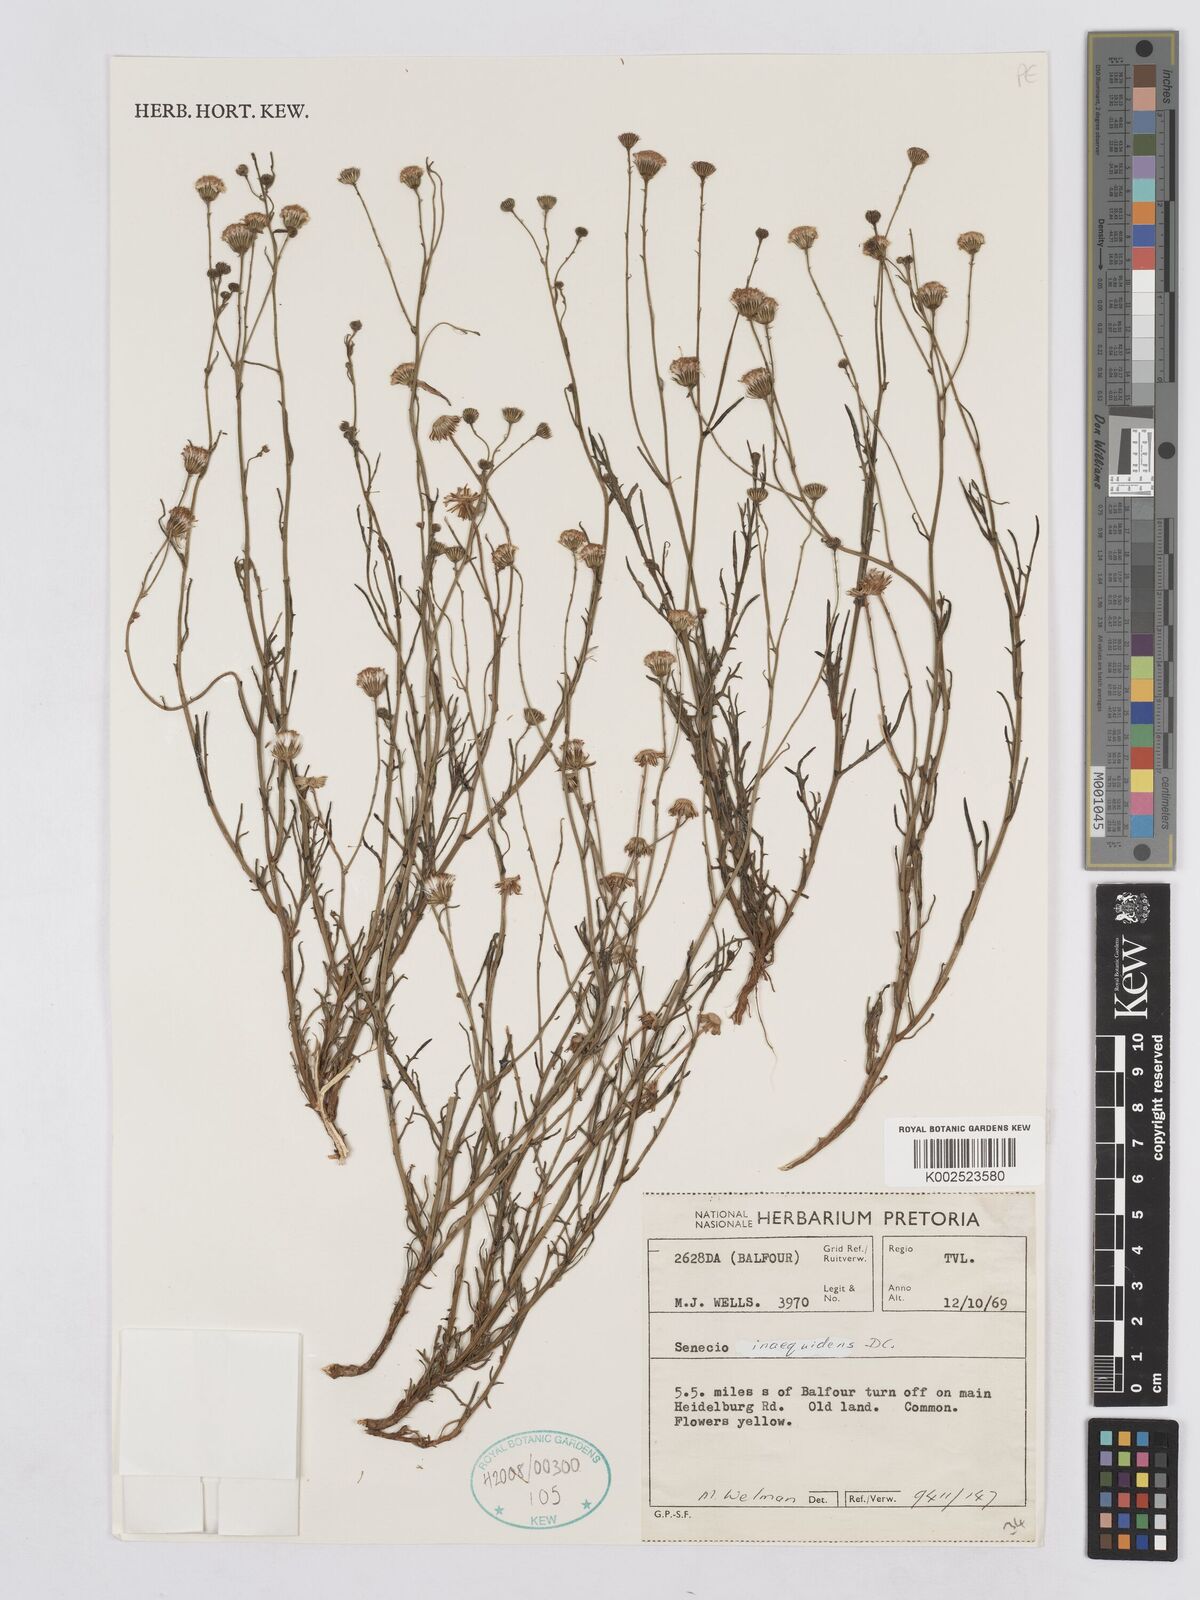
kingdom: Plantae
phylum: Tracheophyta
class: Magnoliopsida
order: Asterales
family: Asteraceae
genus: Senecio
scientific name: Senecio inaequidens
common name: Narrow-leaved ragwort
